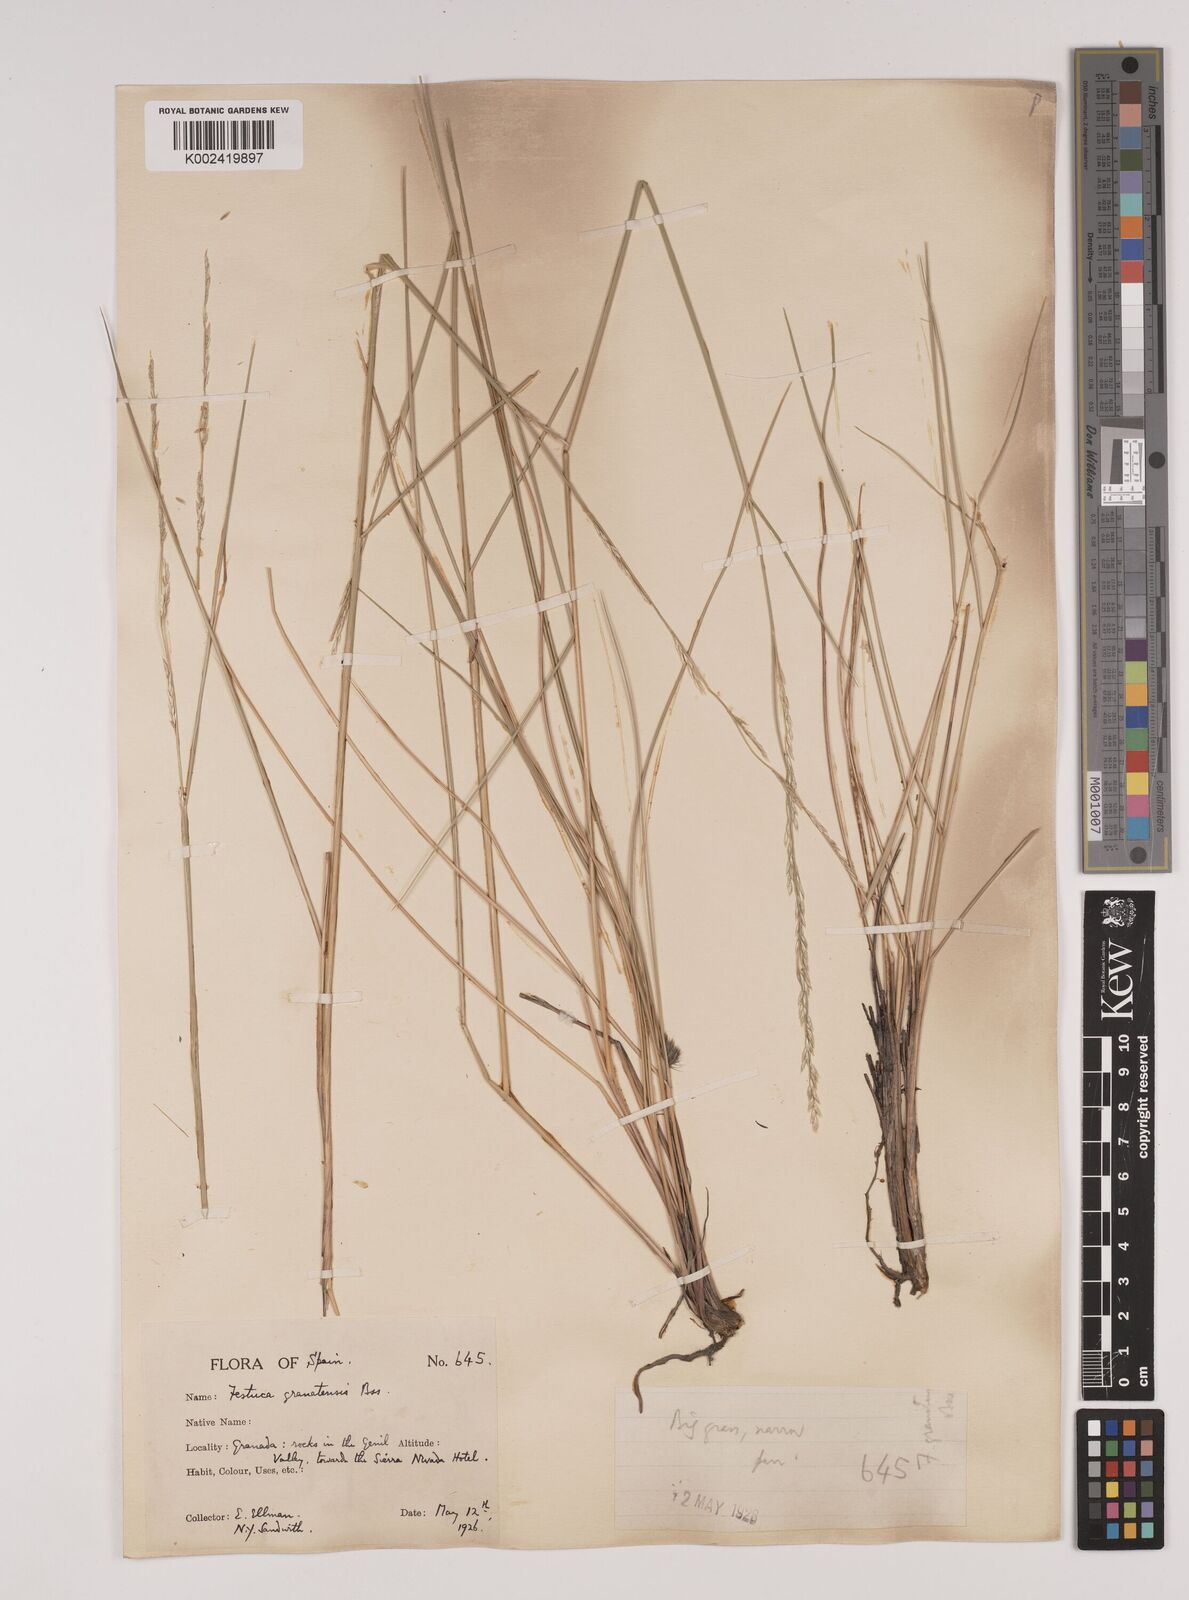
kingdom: Plantae
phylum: Tracheophyta
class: Liliopsida
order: Poales
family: Poaceae
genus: Festuca
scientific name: Festuca scariosa
